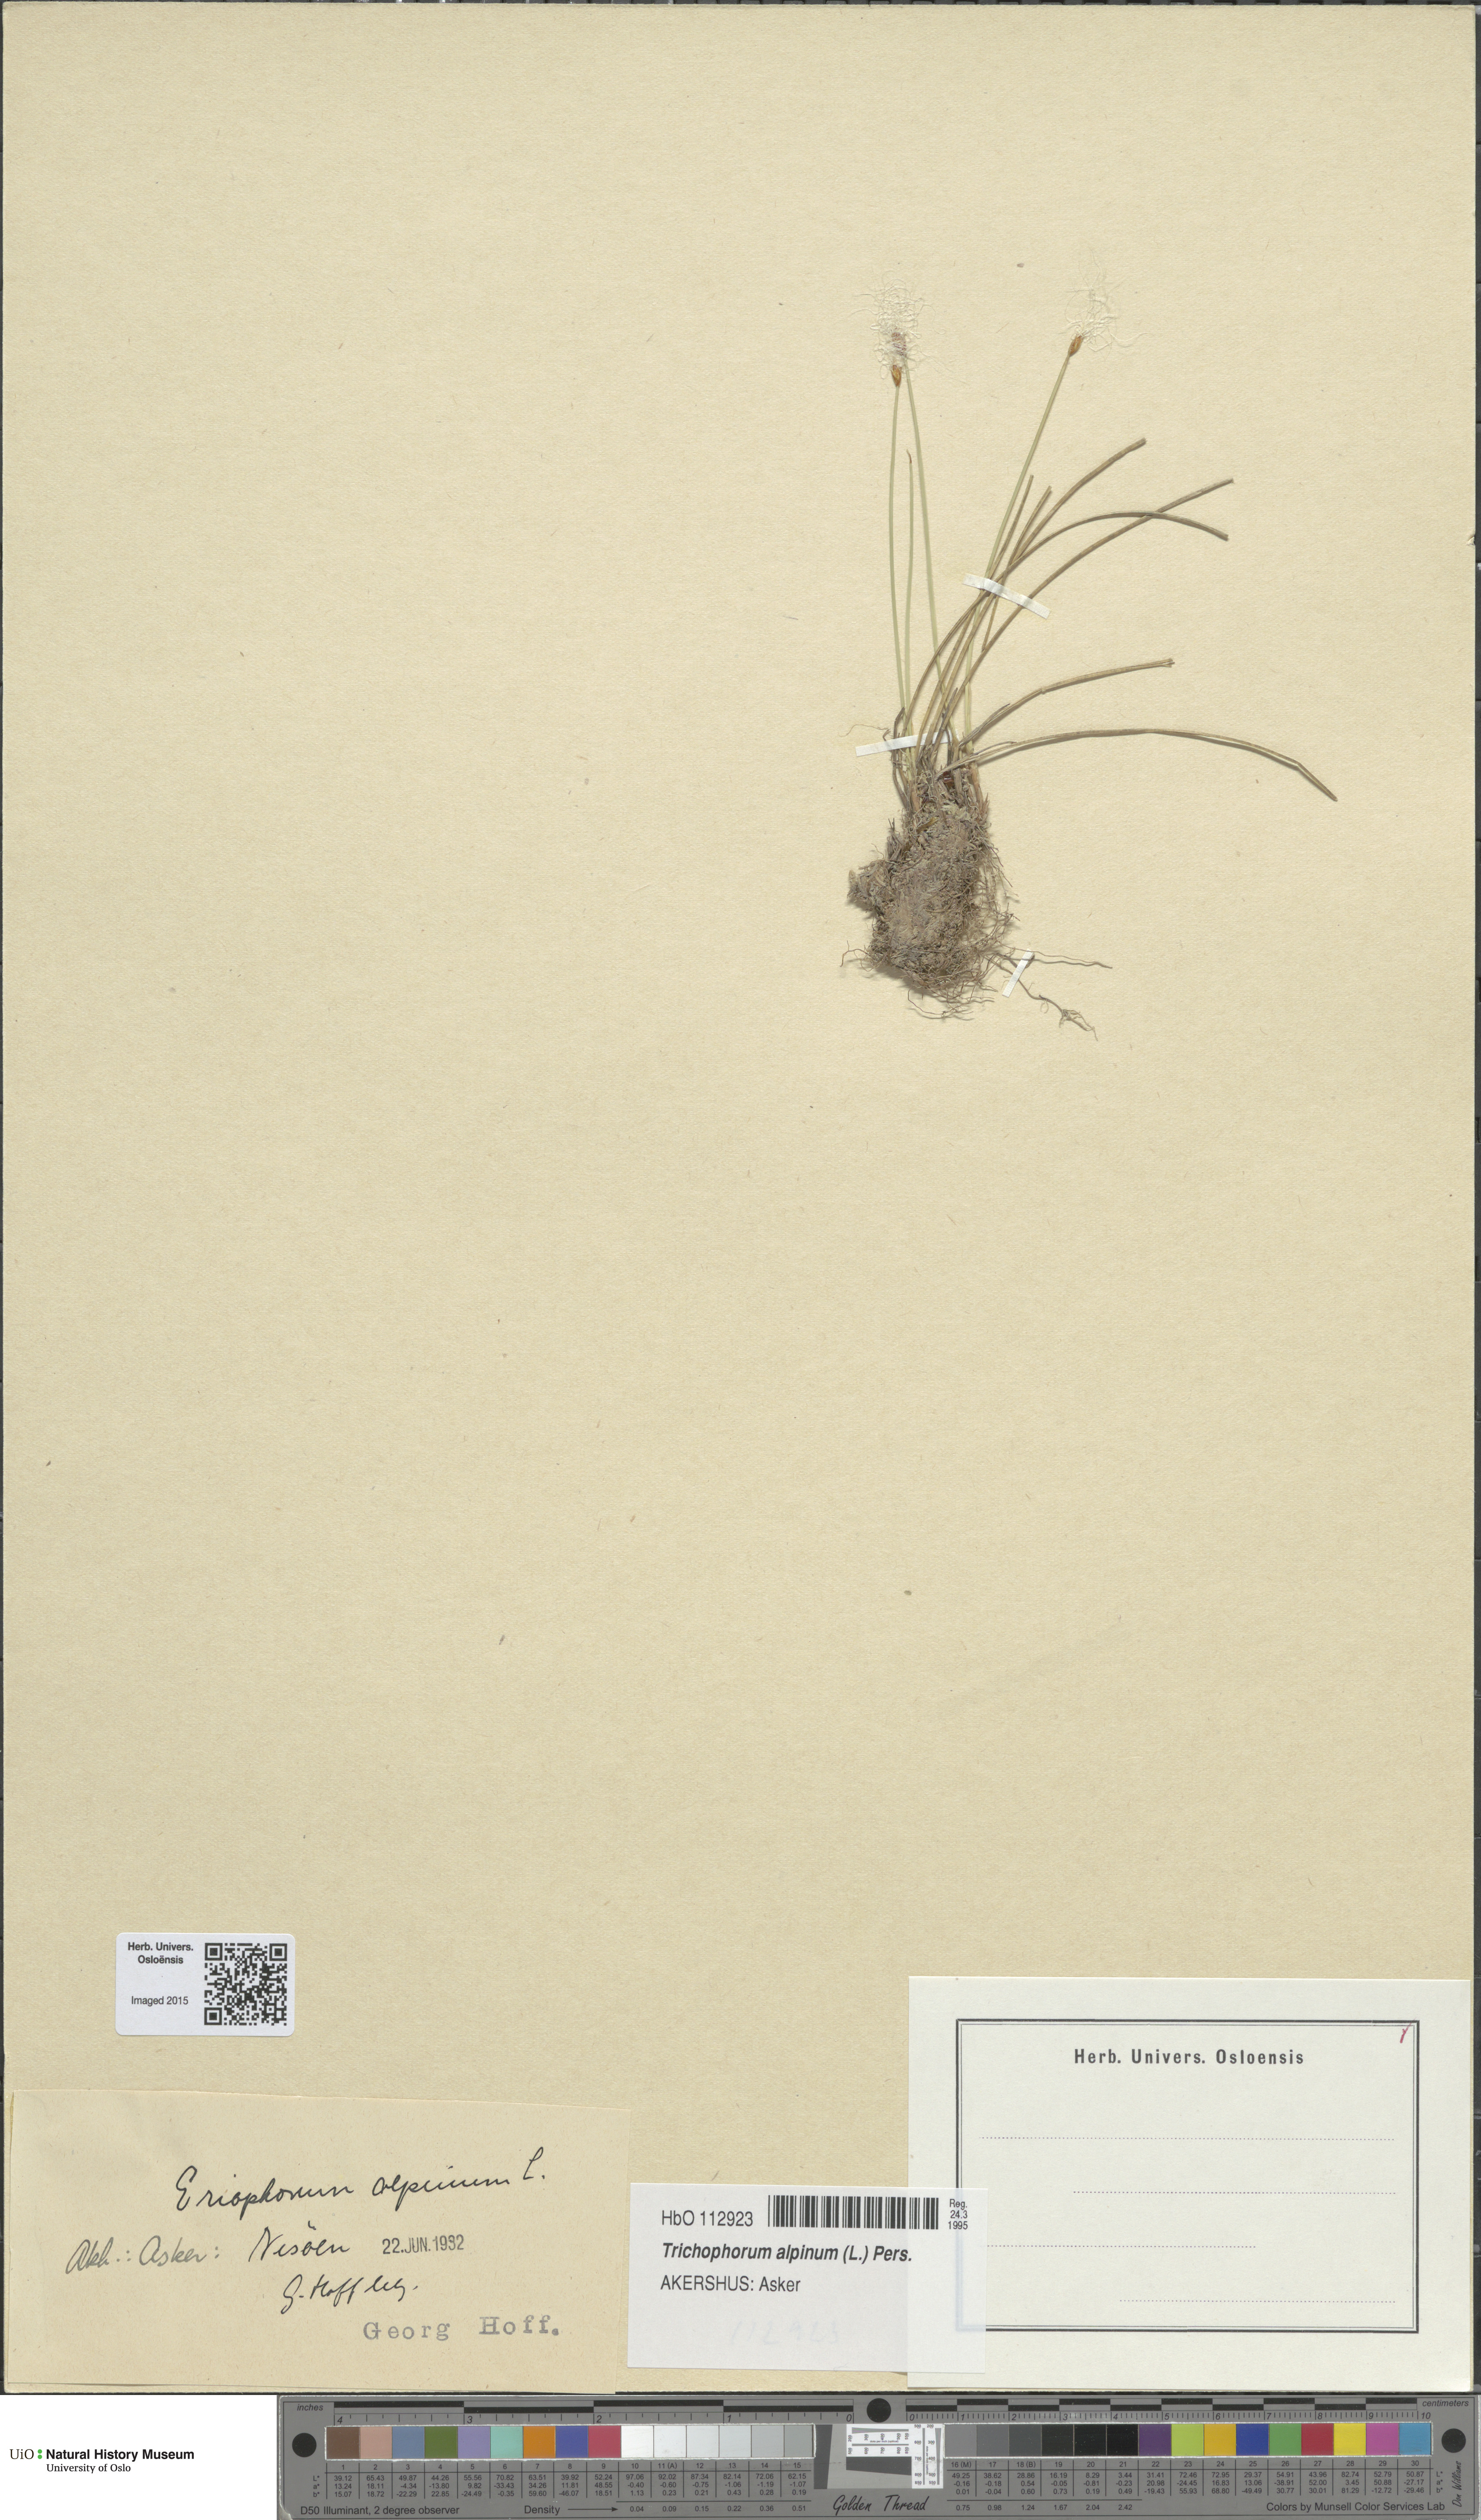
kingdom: Plantae
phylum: Tracheophyta
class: Liliopsida
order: Poales
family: Cyperaceae
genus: Trichophorum
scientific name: Trichophorum alpinum
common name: Alpine bulrush
